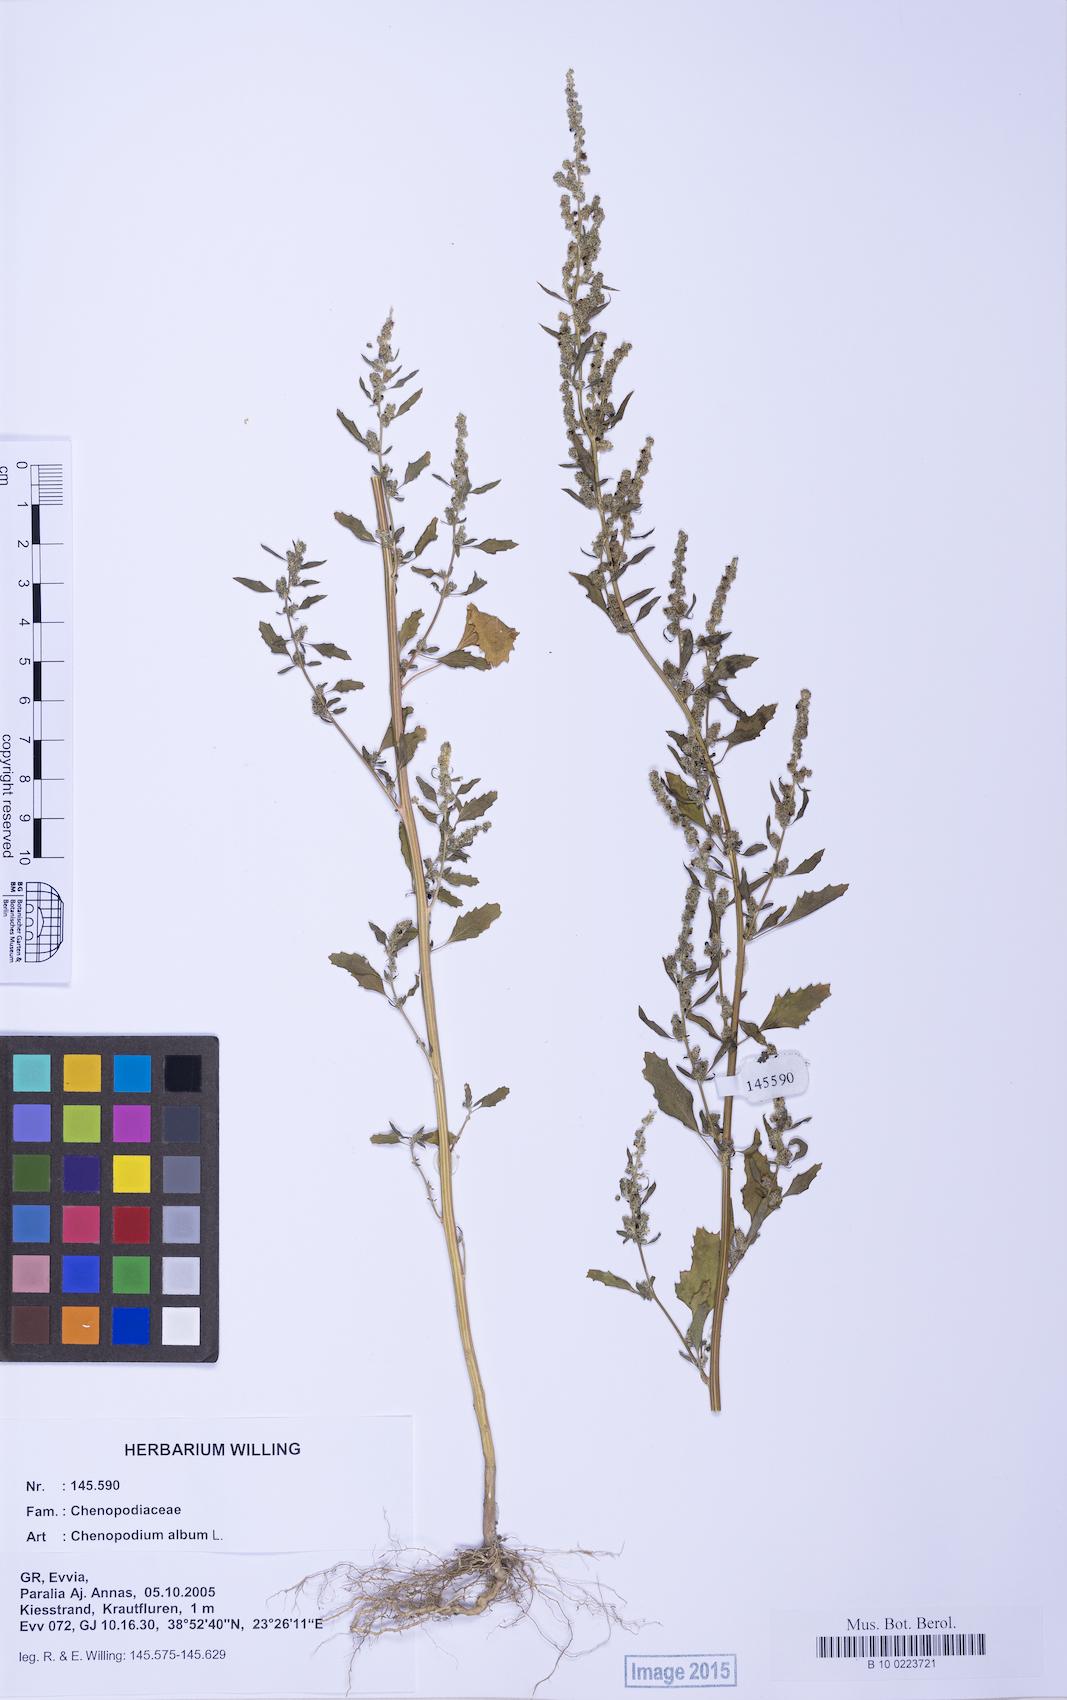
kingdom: Plantae
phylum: Tracheophyta
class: Magnoliopsida
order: Caryophyllales
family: Amaranthaceae
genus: Chenopodium
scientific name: Chenopodium album
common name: Fat-hen
